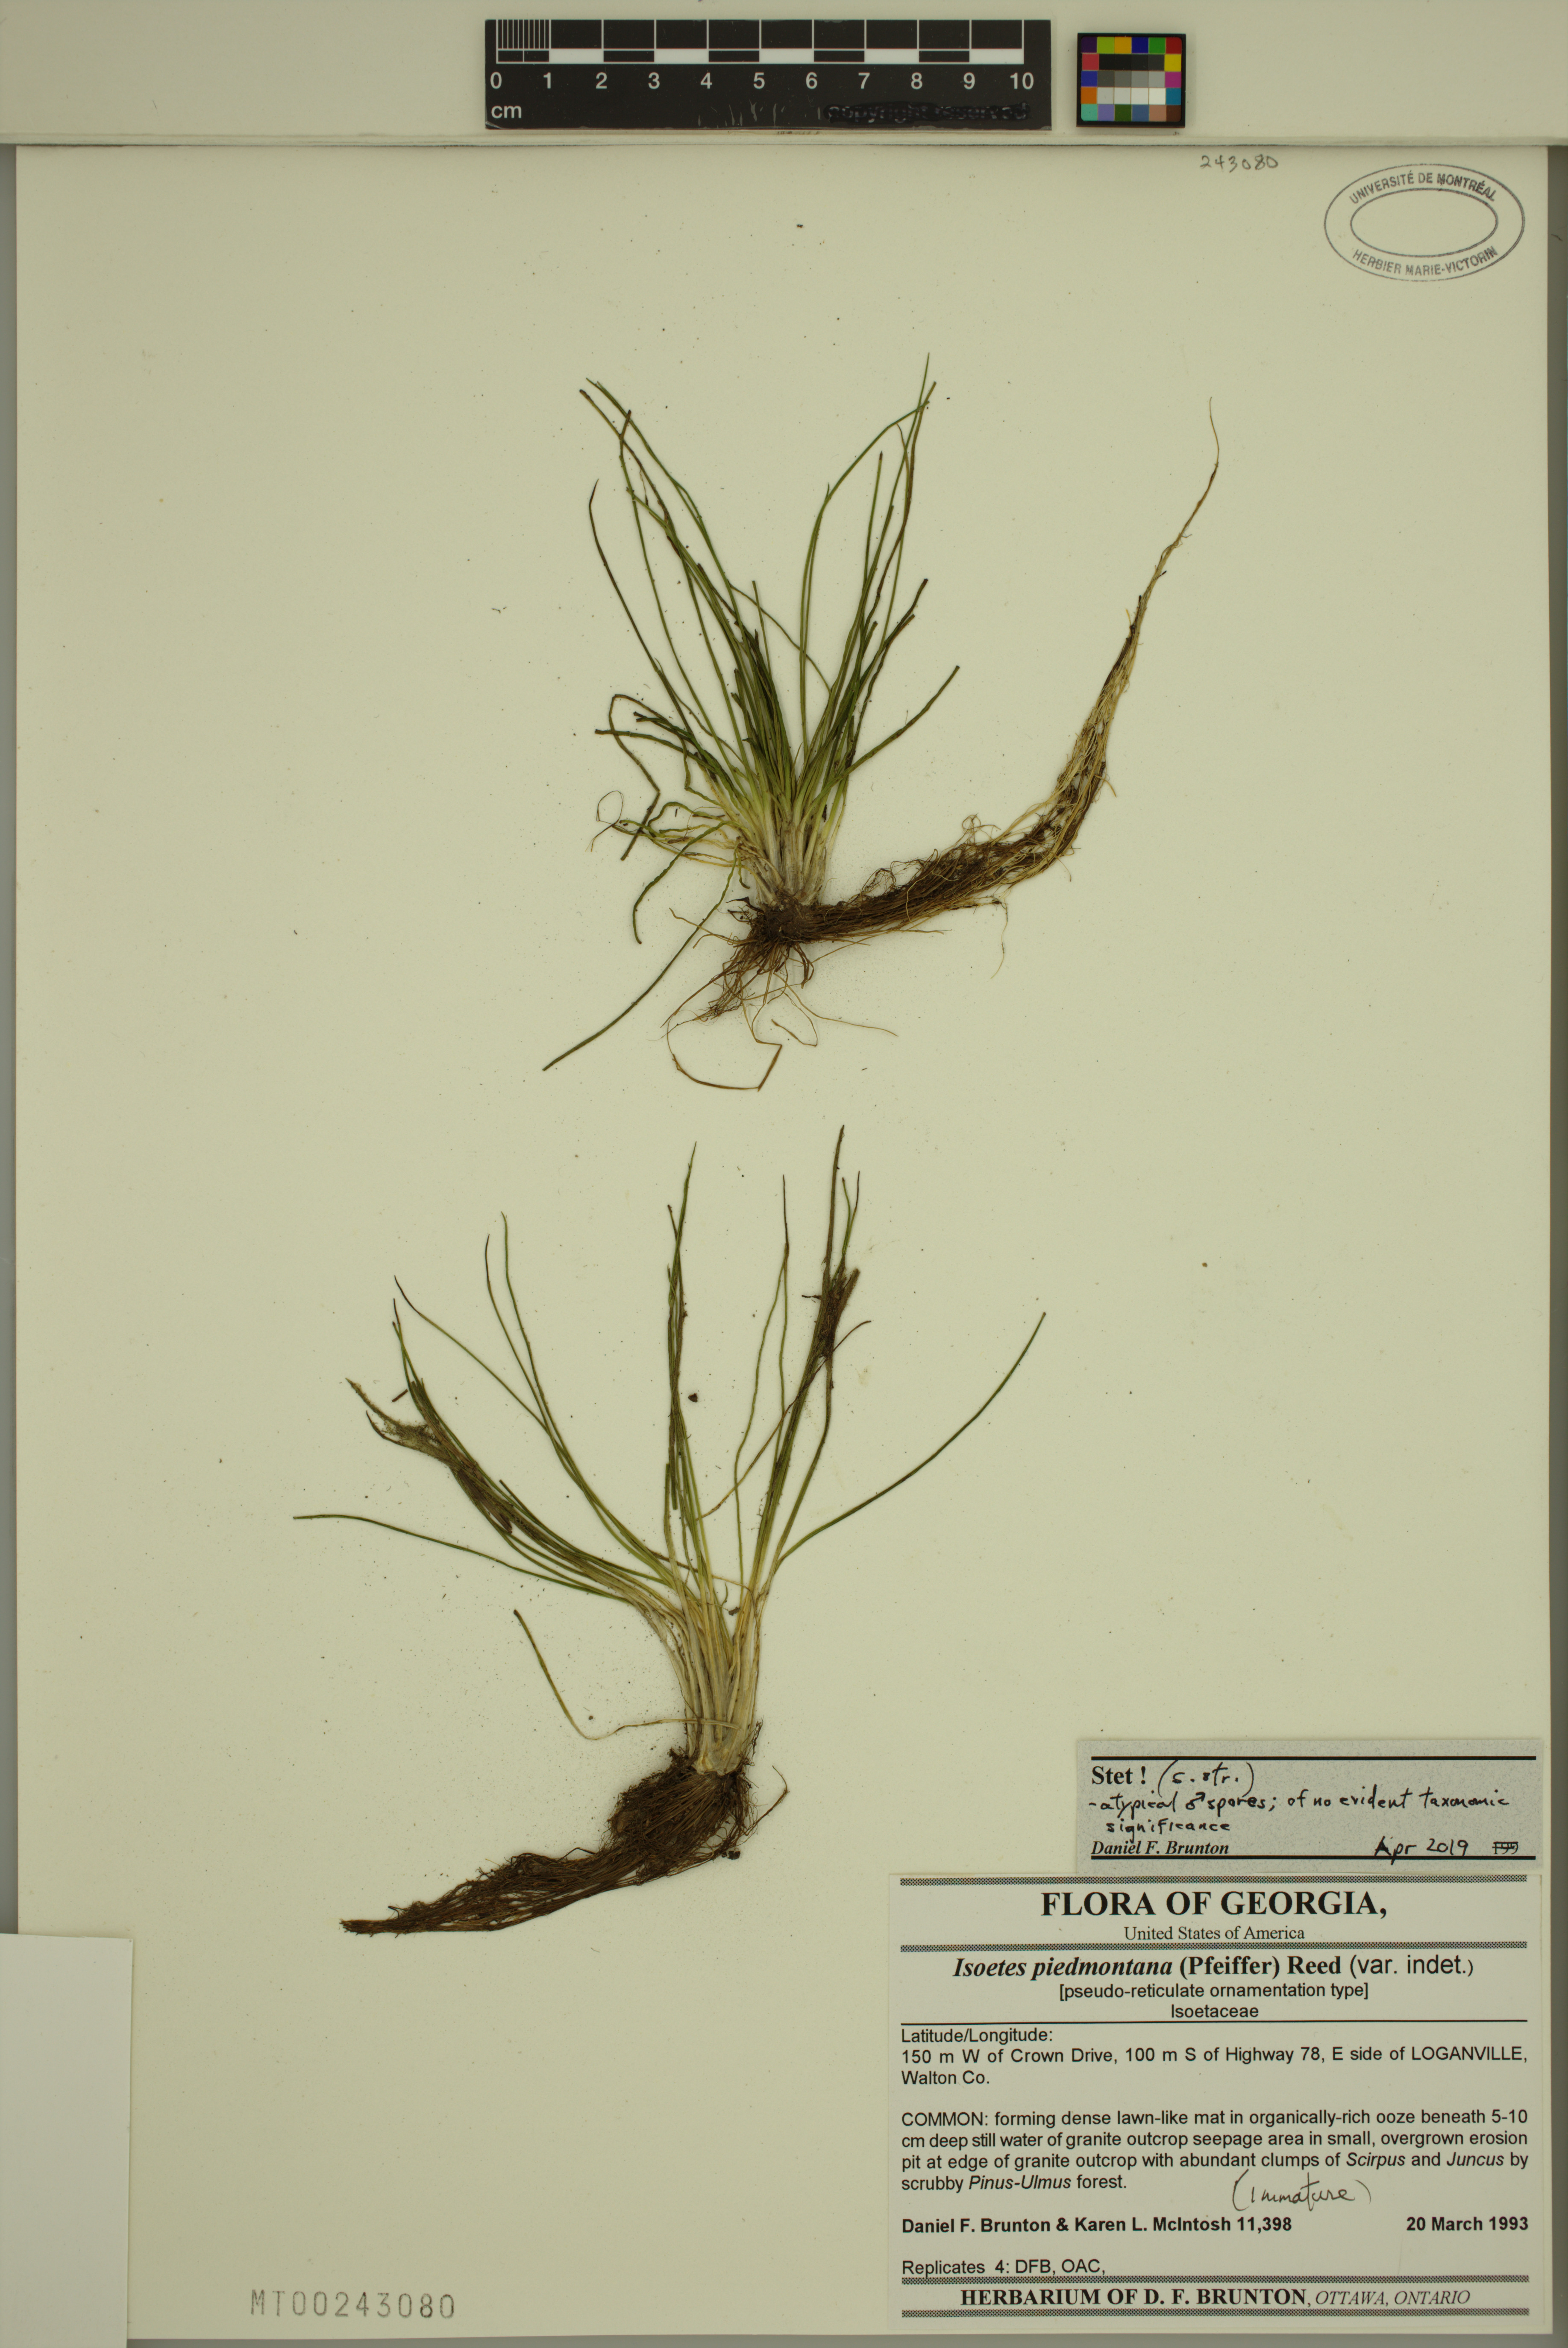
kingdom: Plantae
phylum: Tracheophyta
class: Lycopodiopsida
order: Isoetales
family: Isoetaceae
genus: Isoetes
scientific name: Isoetes virginica
